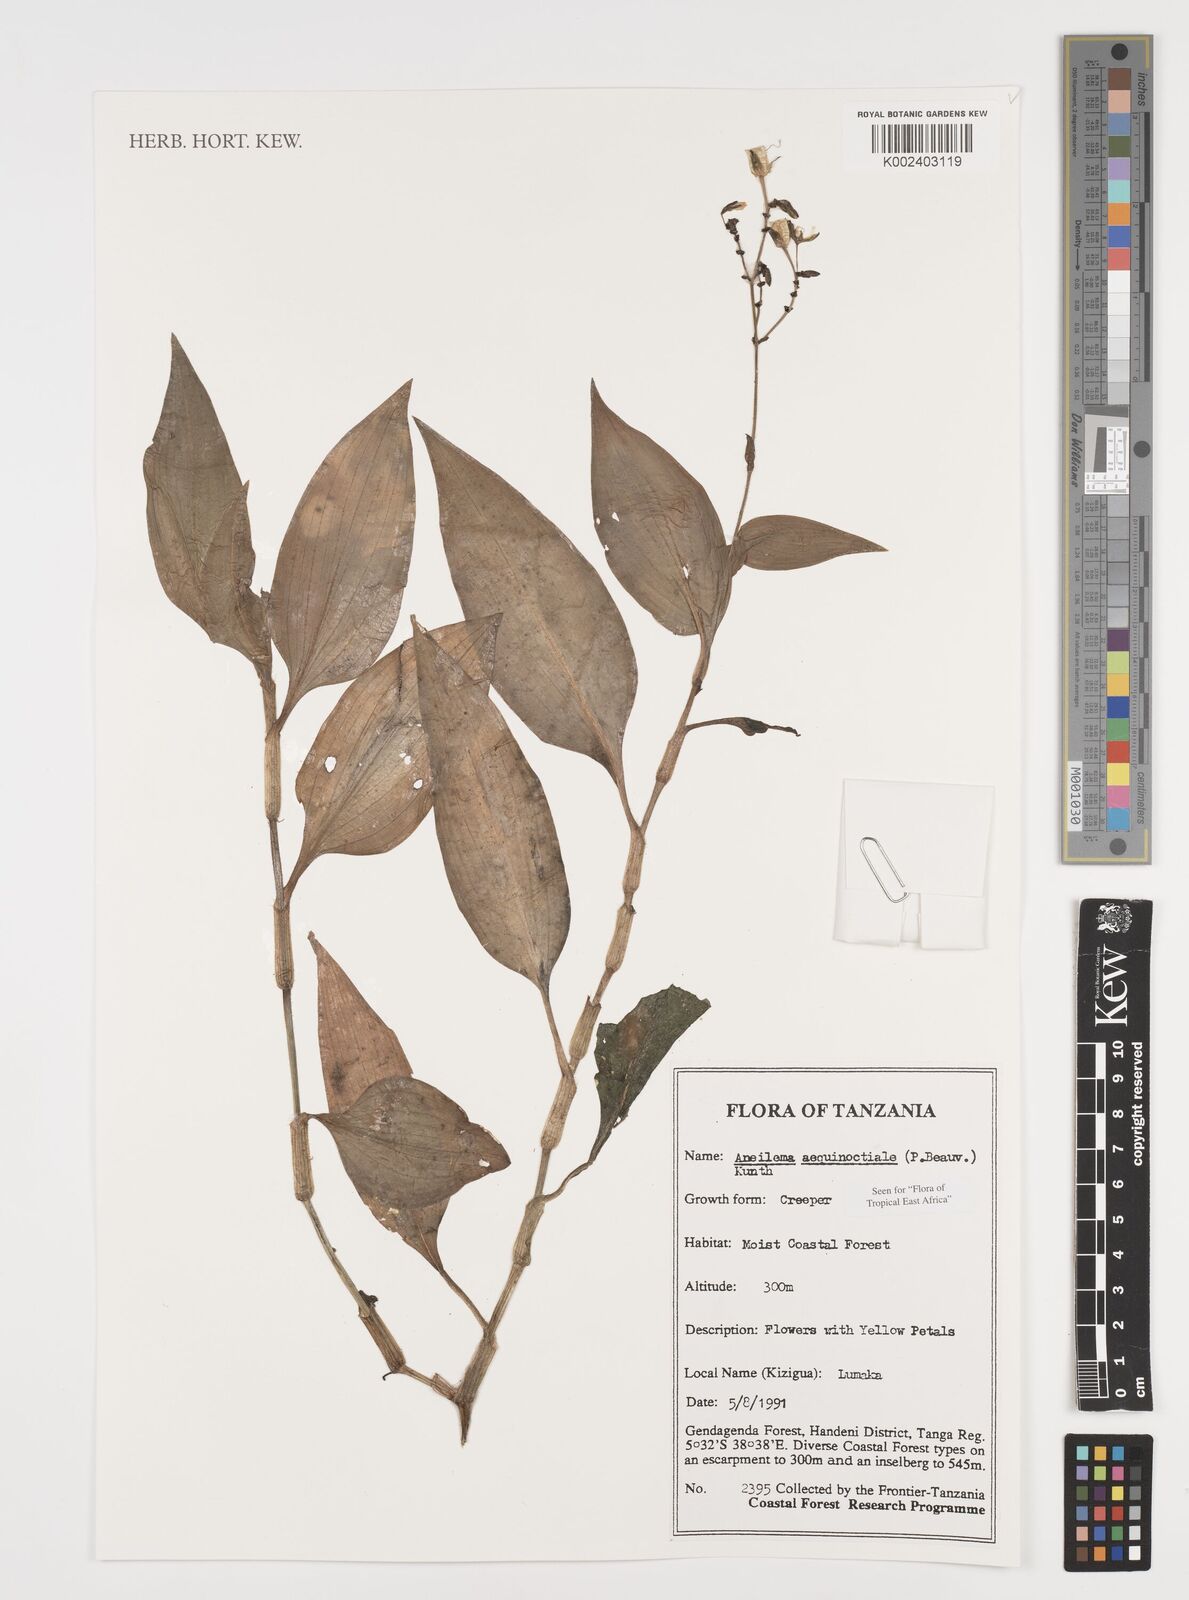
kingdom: Plantae
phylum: Tracheophyta
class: Liliopsida
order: Commelinales
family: Commelinaceae
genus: Aneilema
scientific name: Aneilema aequinoctiale
